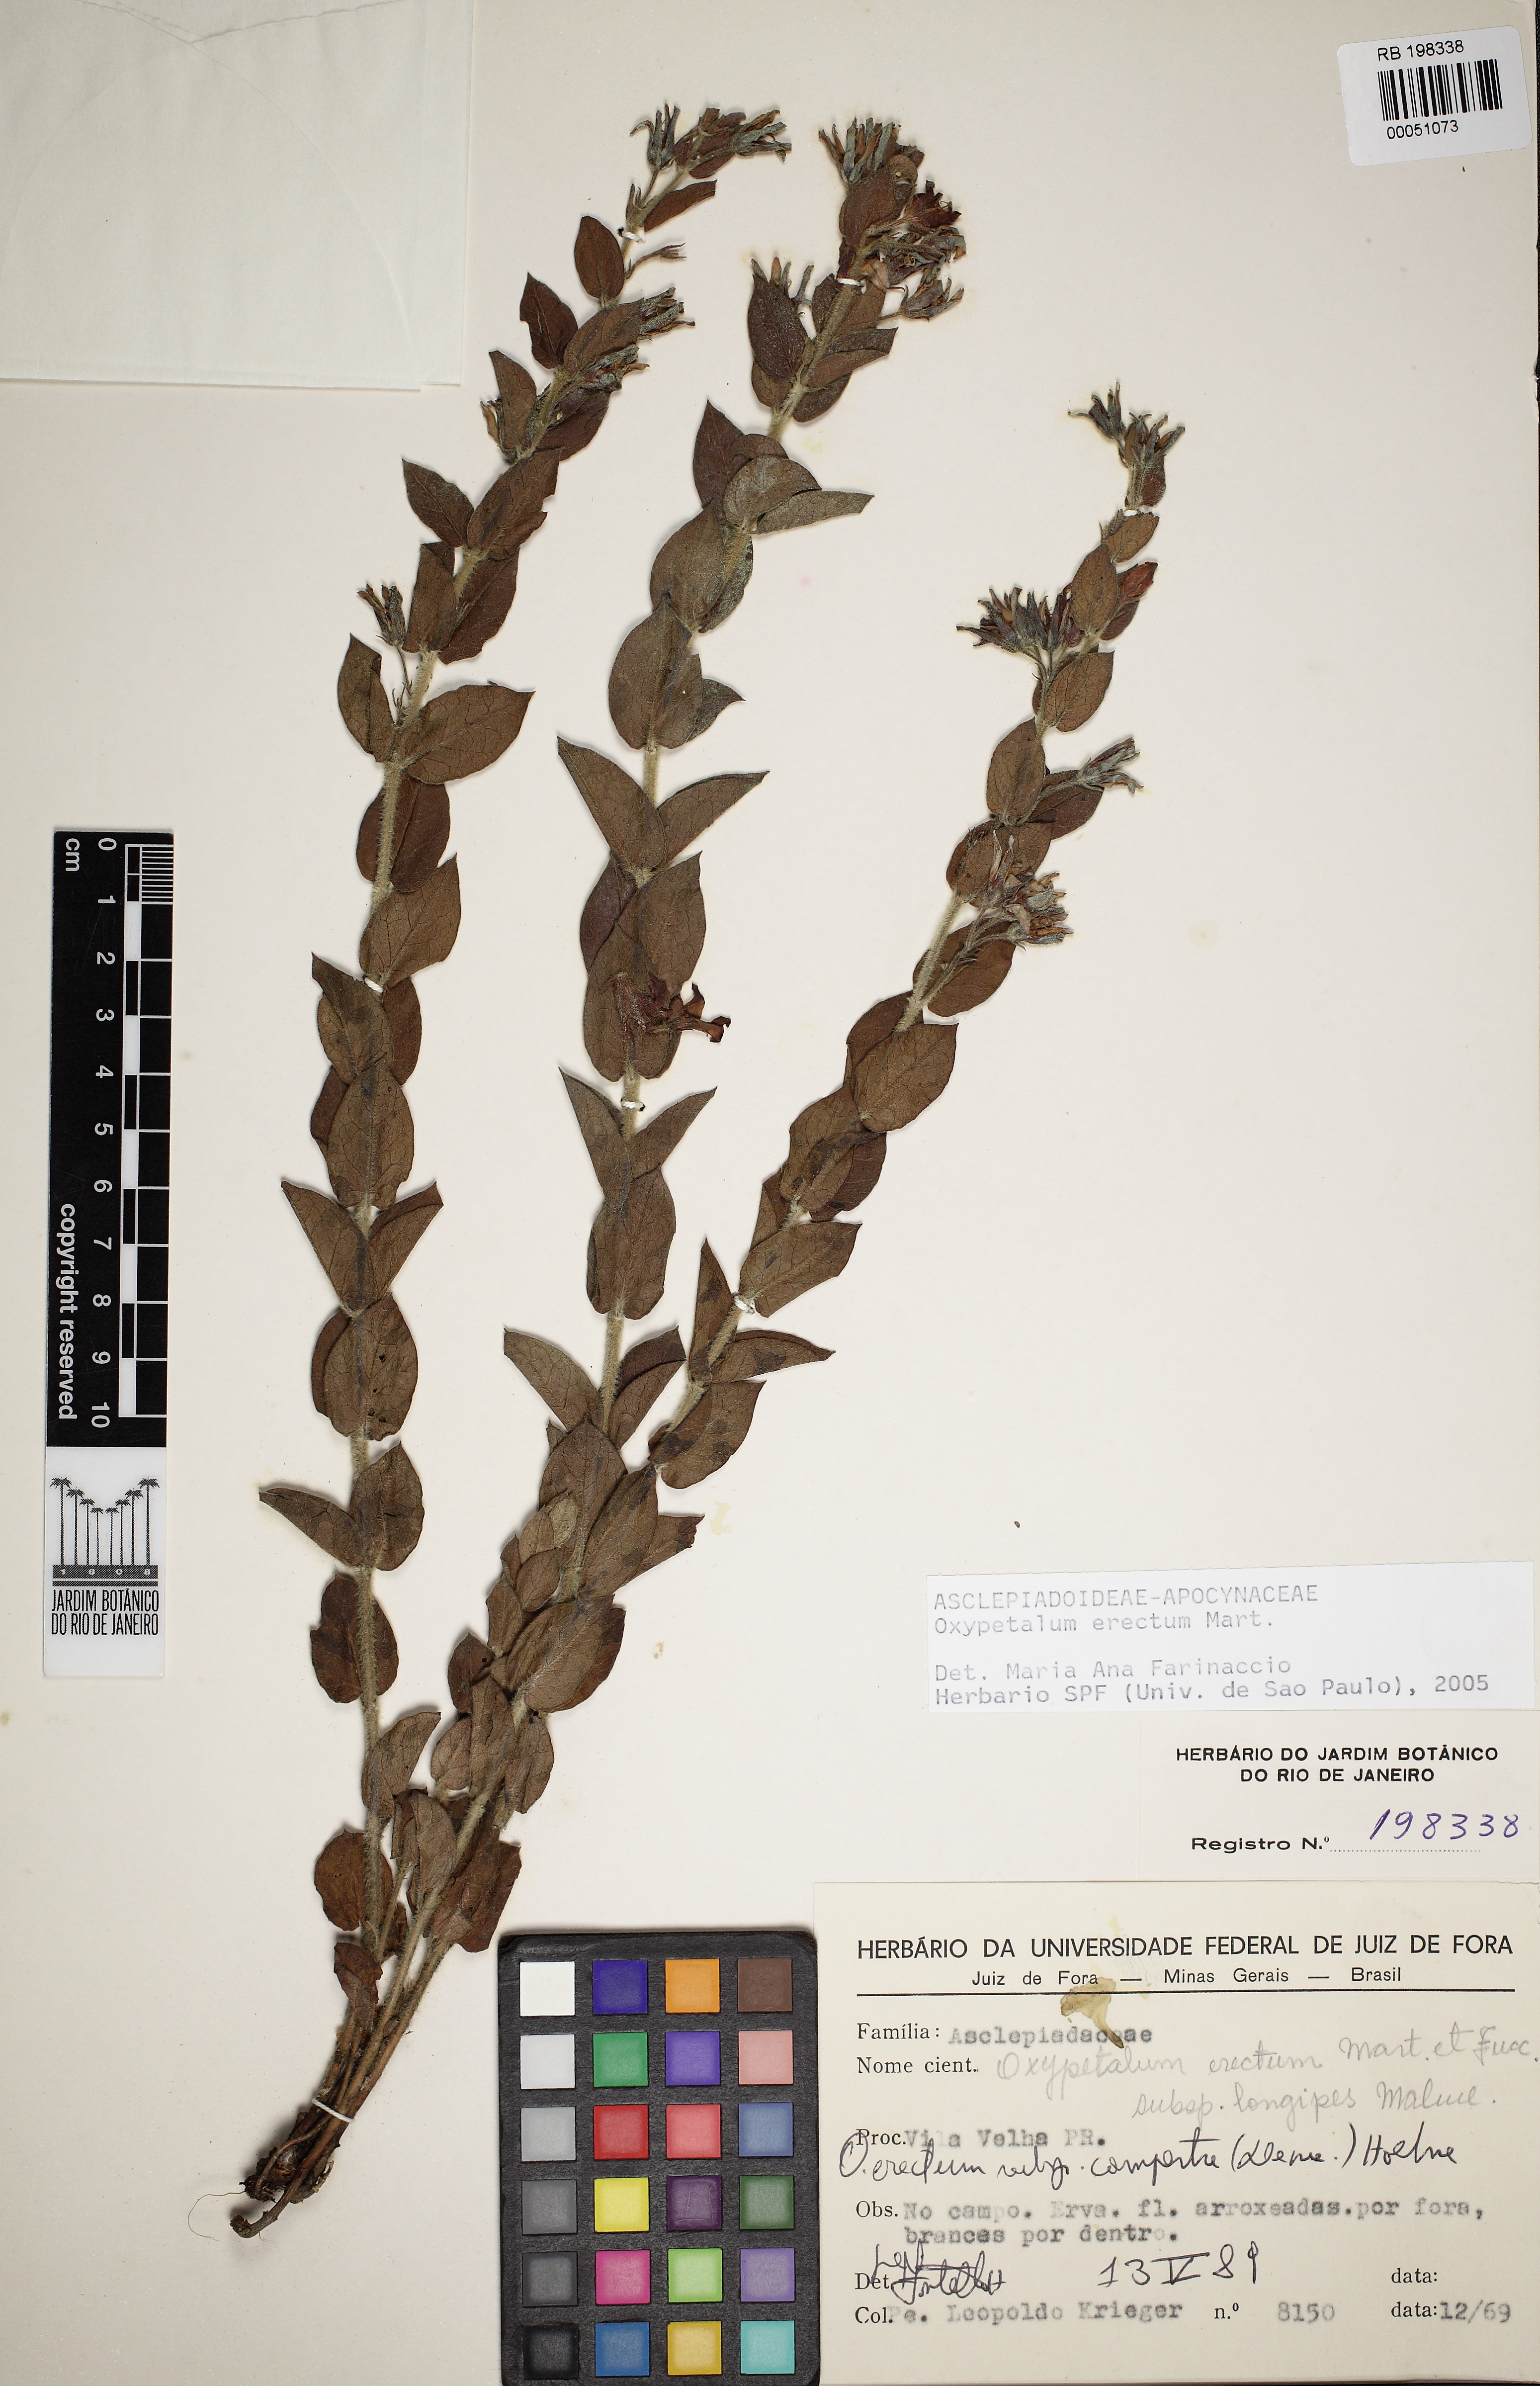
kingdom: Plantae
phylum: Tracheophyta
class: Magnoliopsida
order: Gentianales
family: Apocynaceae
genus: Oxypetalum
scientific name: Oxypetalum erectum
